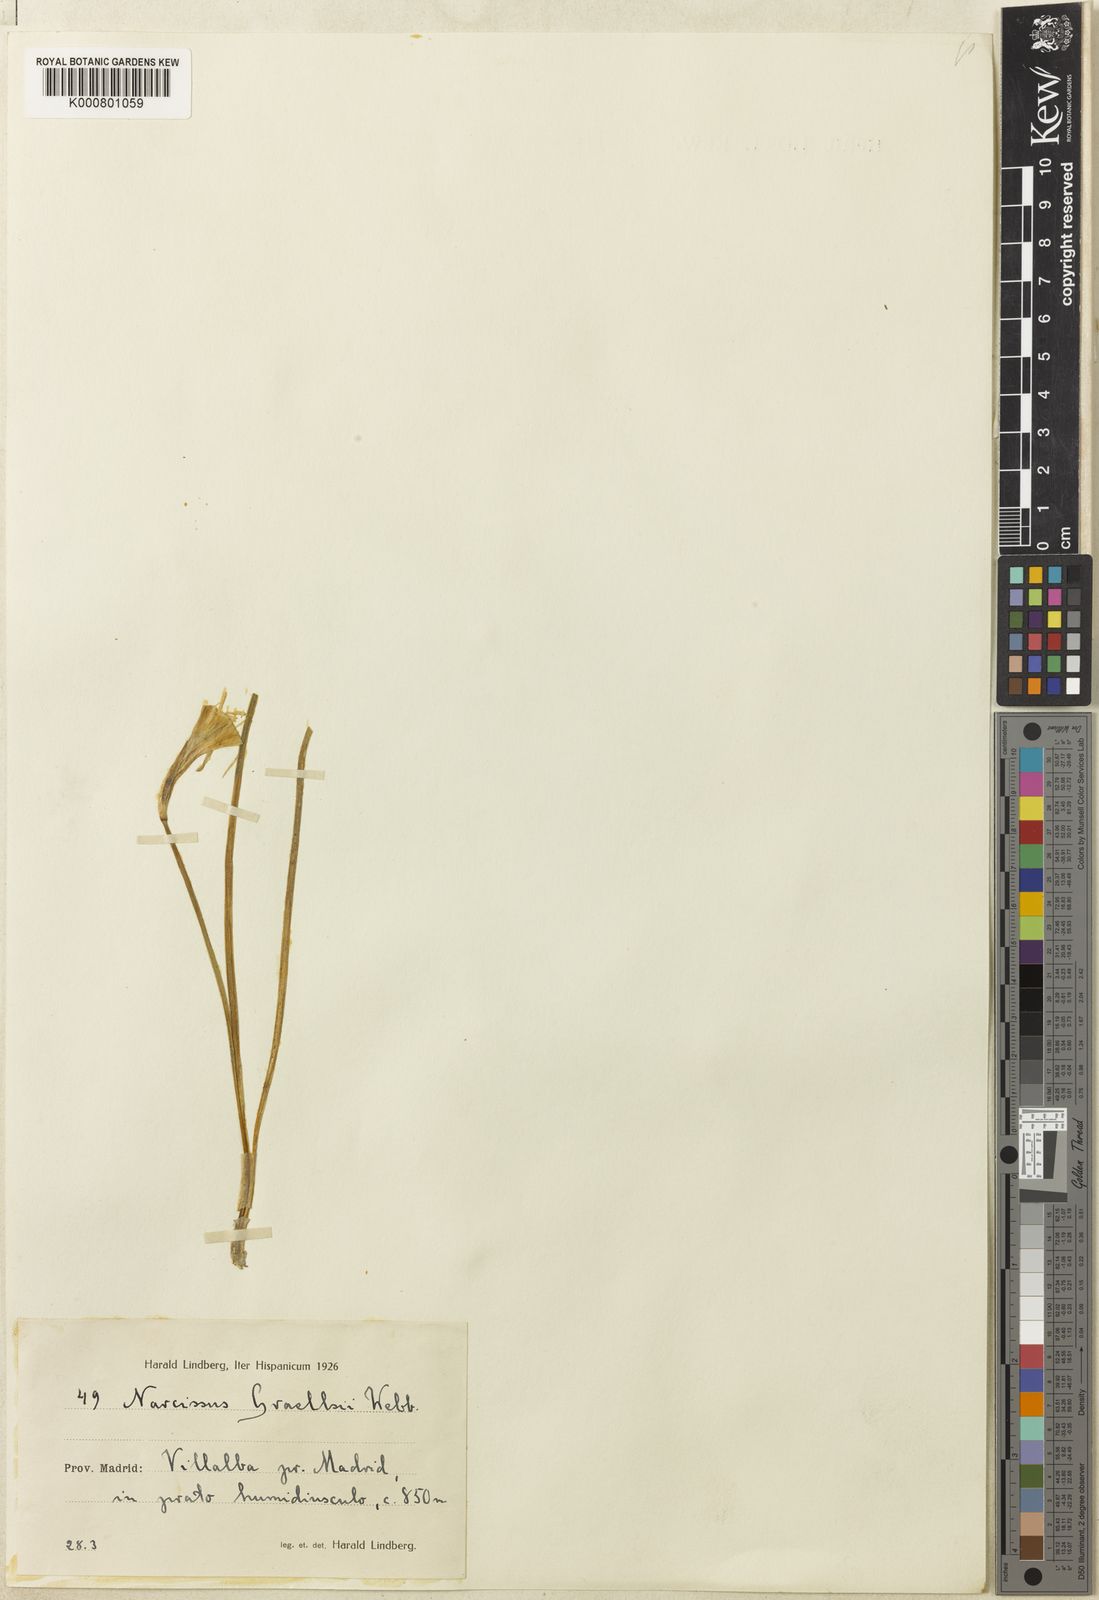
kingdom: Plantae
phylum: Tracheophyta
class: Liliopsida
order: Asparagales
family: Amaryllidaceae
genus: Narcissus
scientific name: Narcissus bulbocodium
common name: Hoop-petticoat daffodil
